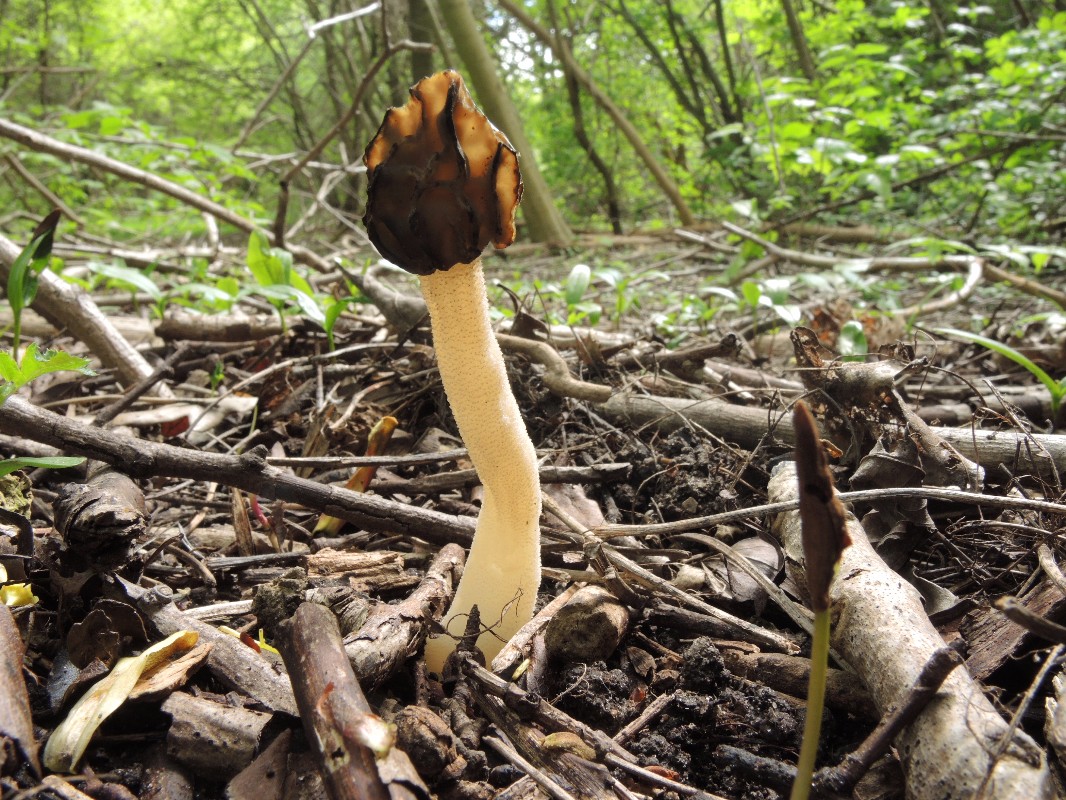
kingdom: Fungi
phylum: Ascomycota
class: Pezizomycetes
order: Pezizales
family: Morchellaceae
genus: Morchella
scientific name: Morchella semilibera
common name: hætte-morkel
